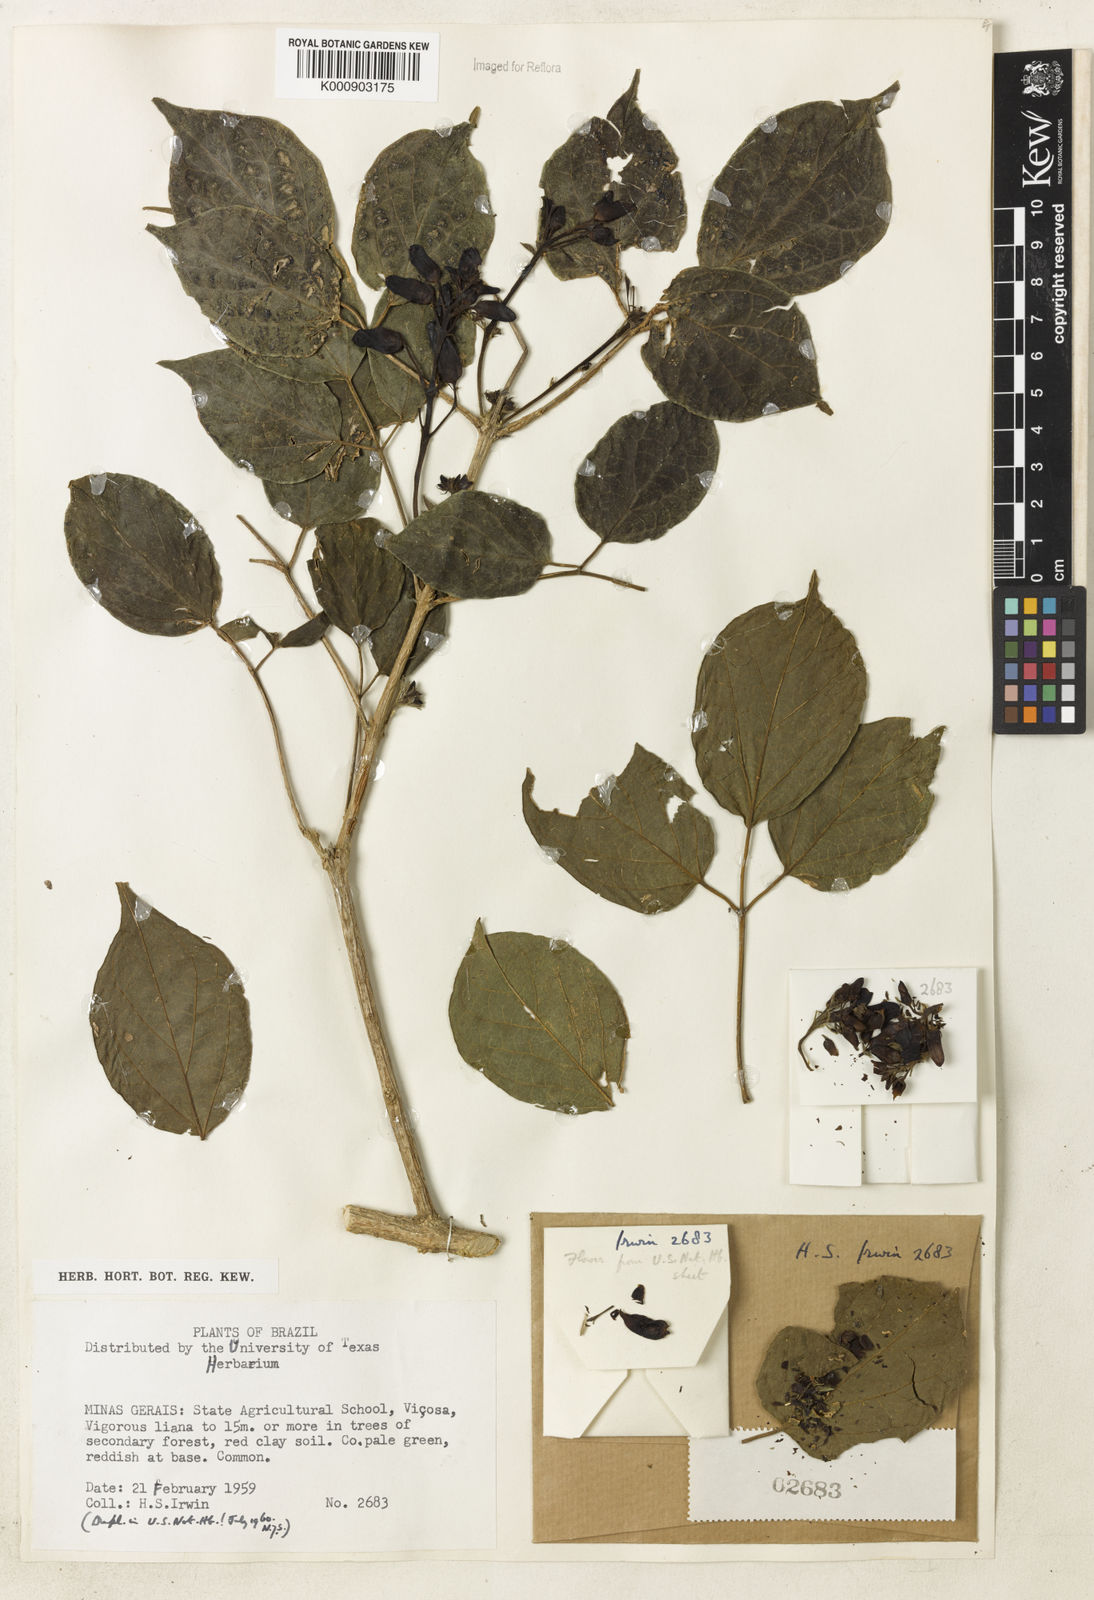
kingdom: Plantae
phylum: Tracheophyta
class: Magnoliopsida
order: Lamiales
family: Bignoniaceae
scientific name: Bignoniaceae
